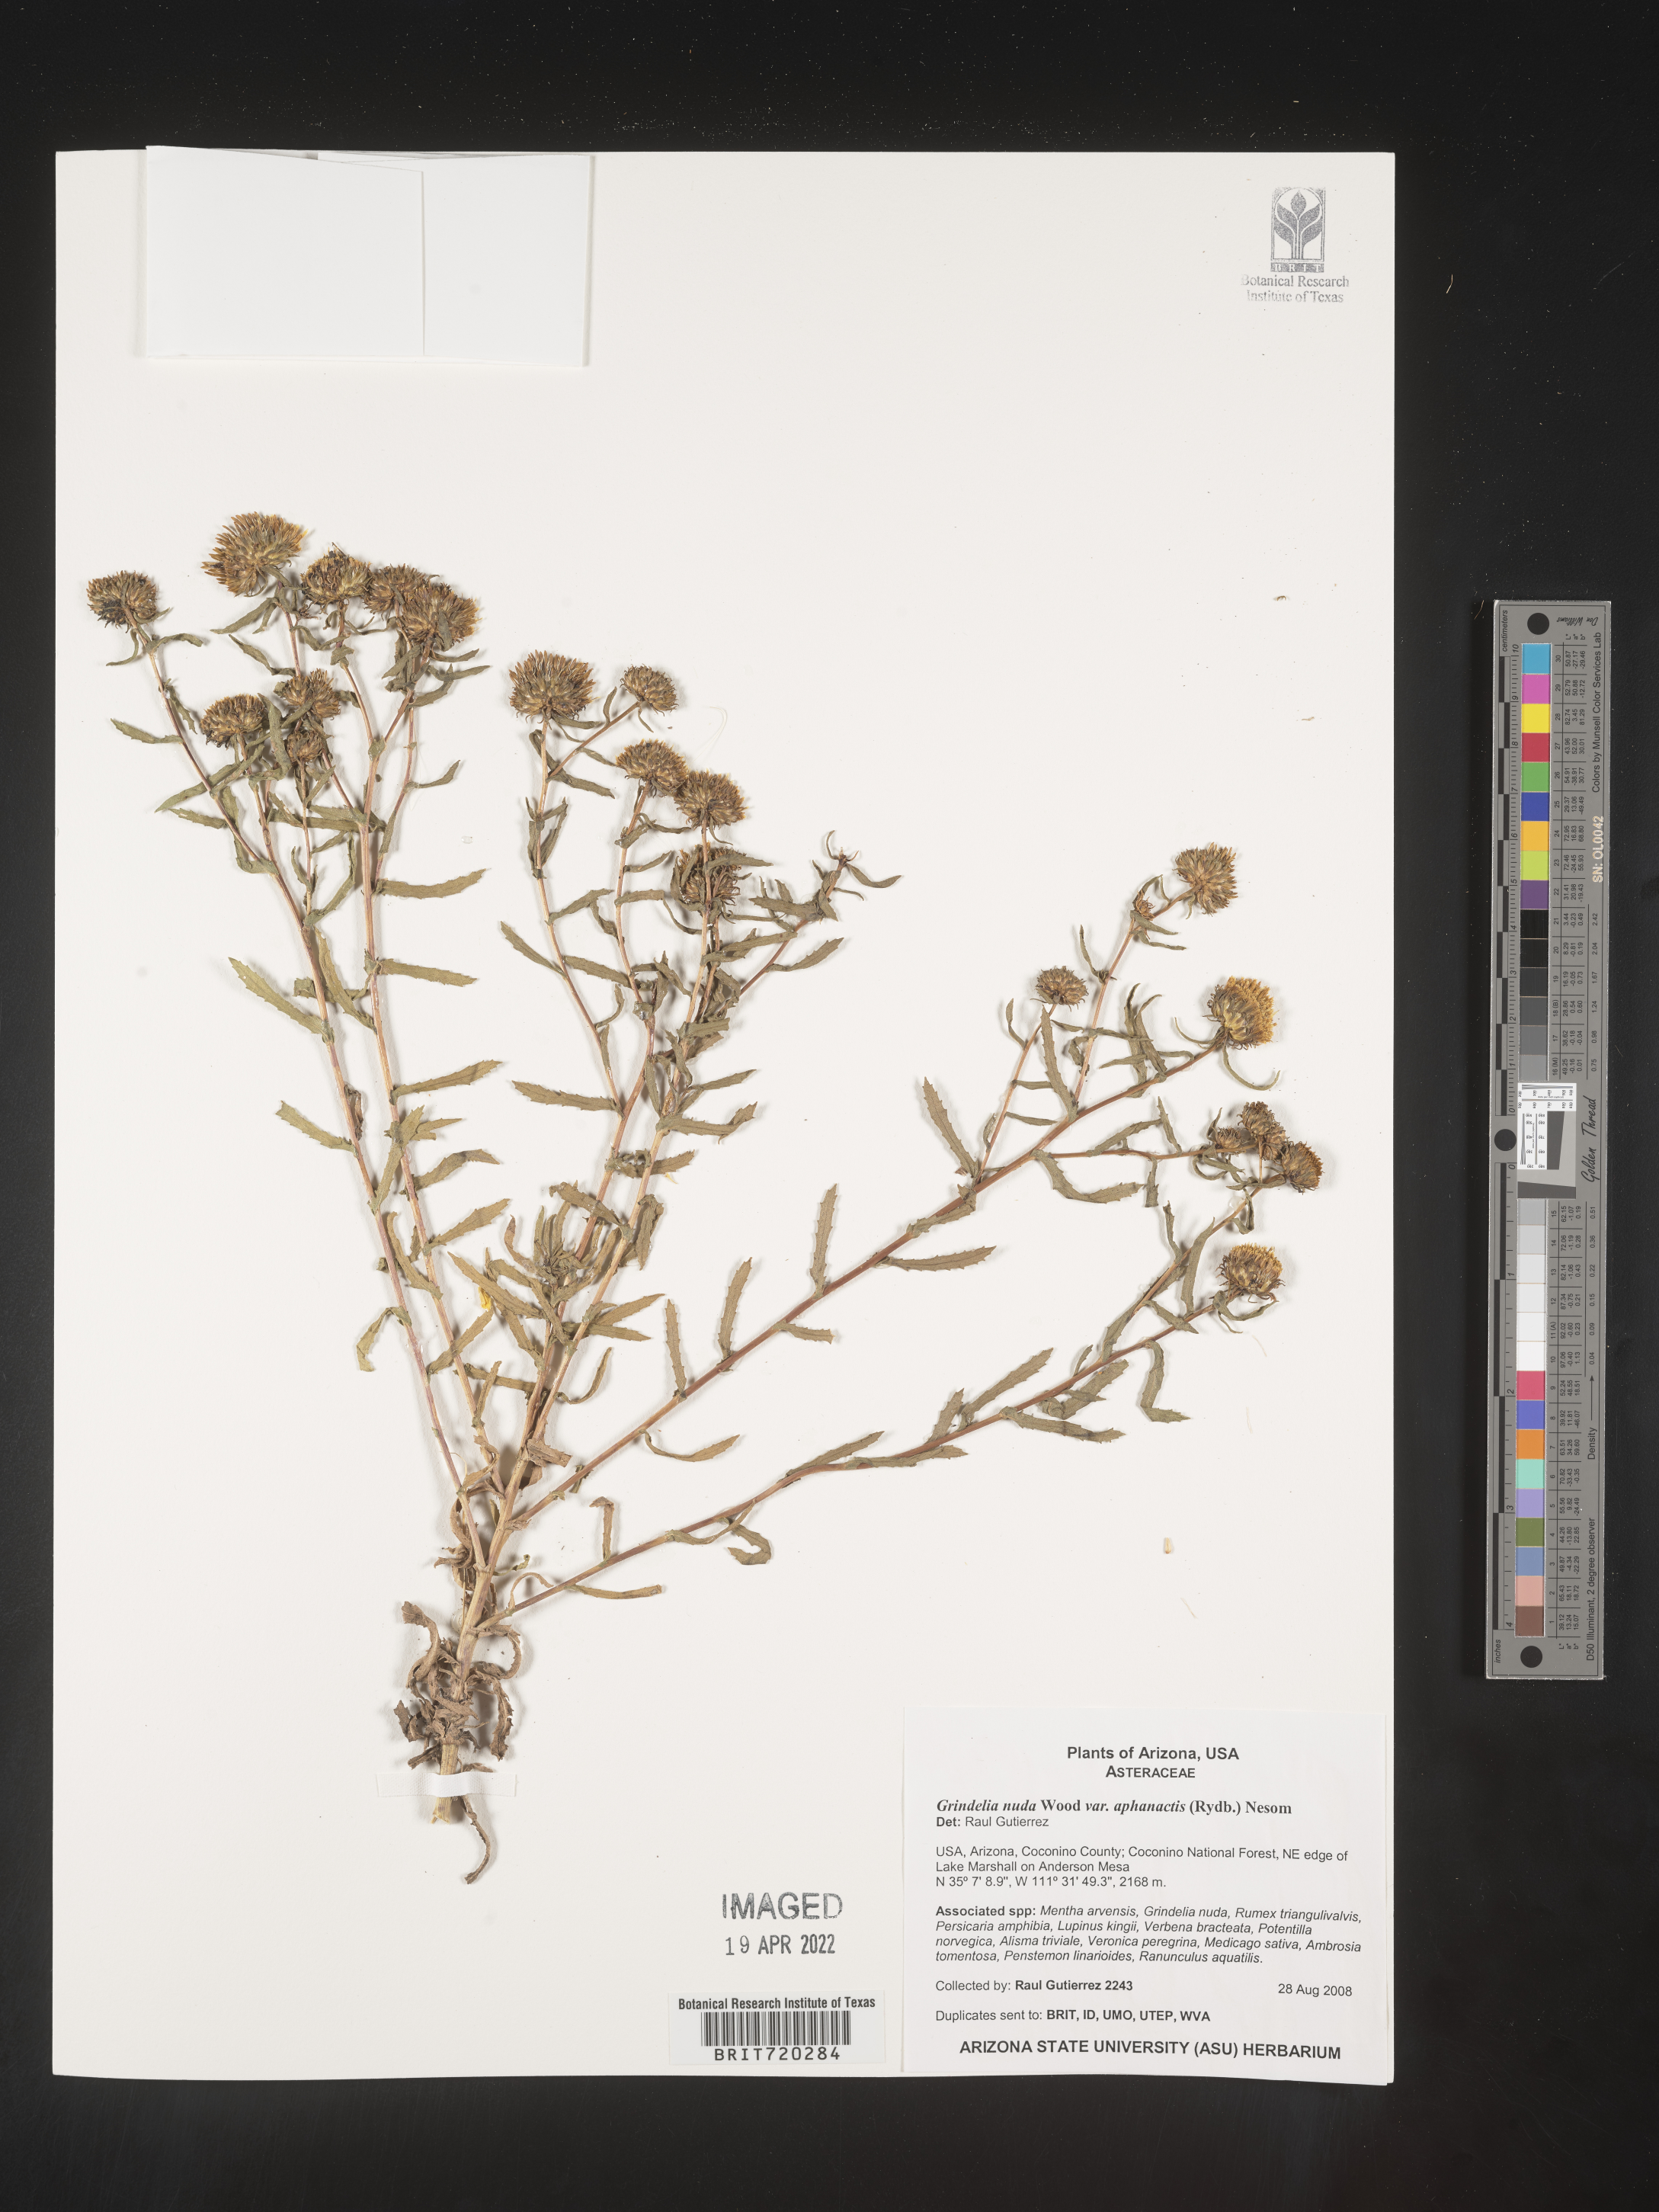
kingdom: Plantae
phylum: Tracheophyta
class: Magnoliopsida
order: Asterales
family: Asteraceae
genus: Grindelia
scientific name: Grindelia nuda
